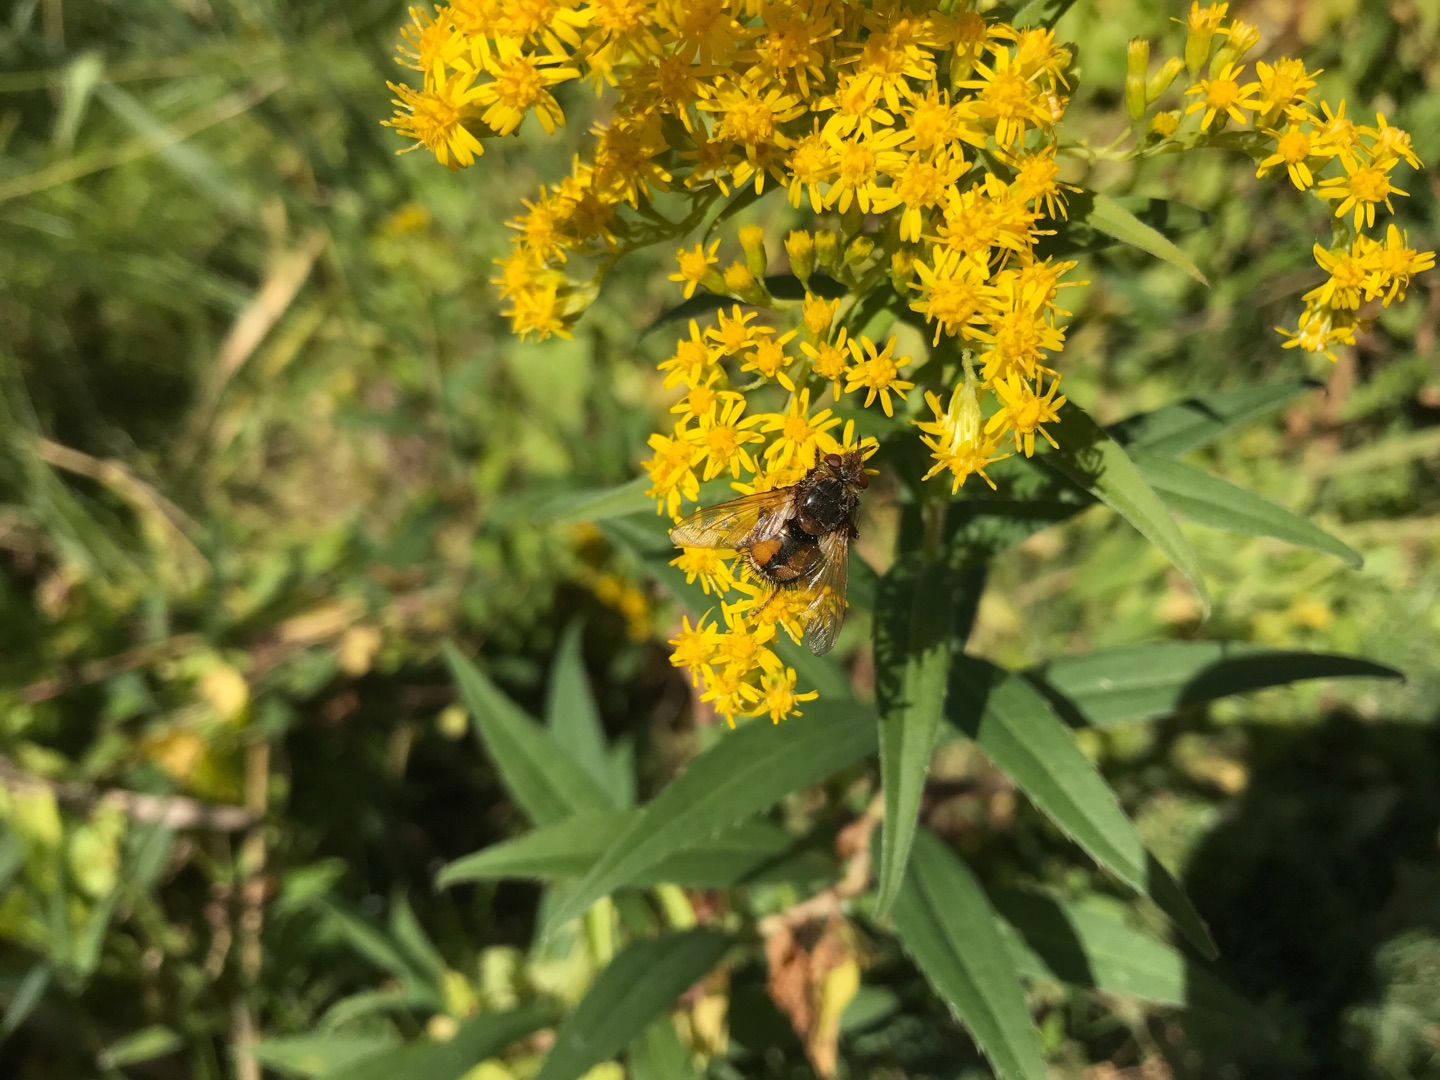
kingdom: Animalia
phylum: Arthropoda
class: Insecta
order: Diptera
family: Tachinidae
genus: Tachina
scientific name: Tachina fera
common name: Mellemfluen oskar
